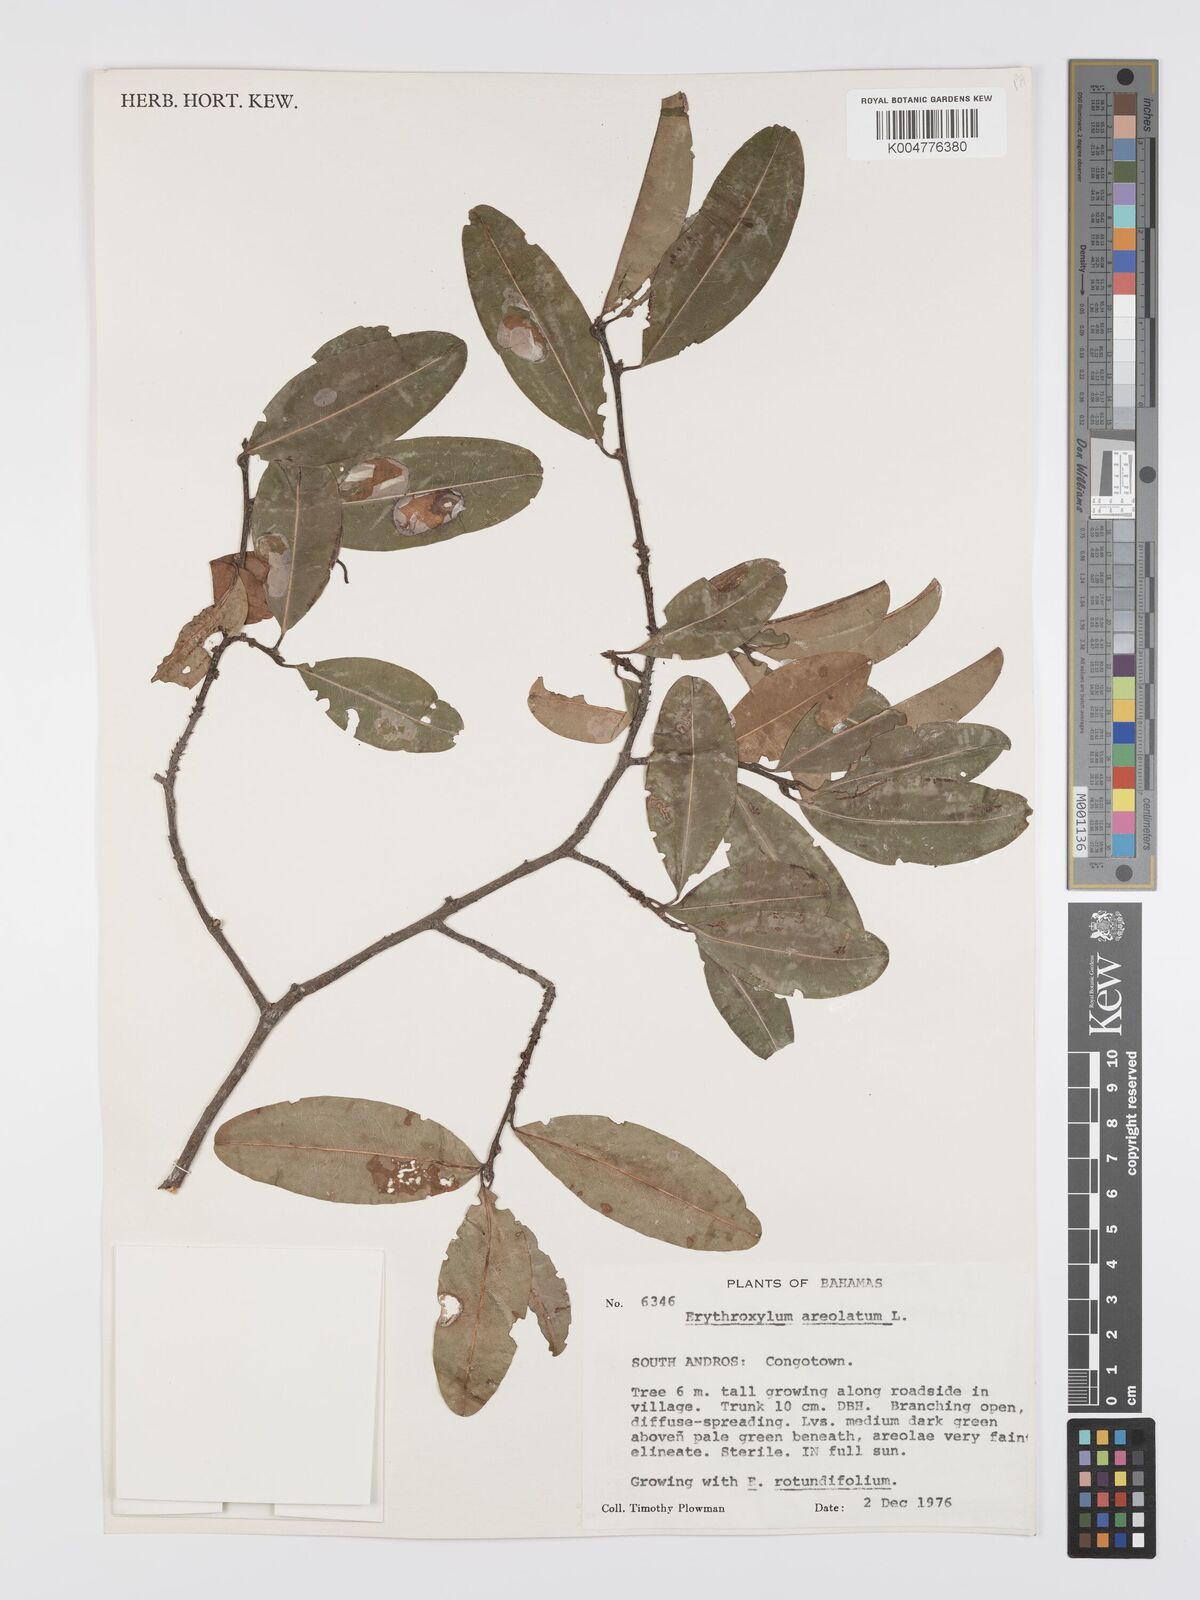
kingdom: Plantae
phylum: Tracheophyta
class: Magnoliopsida
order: Malpighiales
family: Erythroxylaceae
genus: Erythroxylum
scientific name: Erythroxylum areolatum
